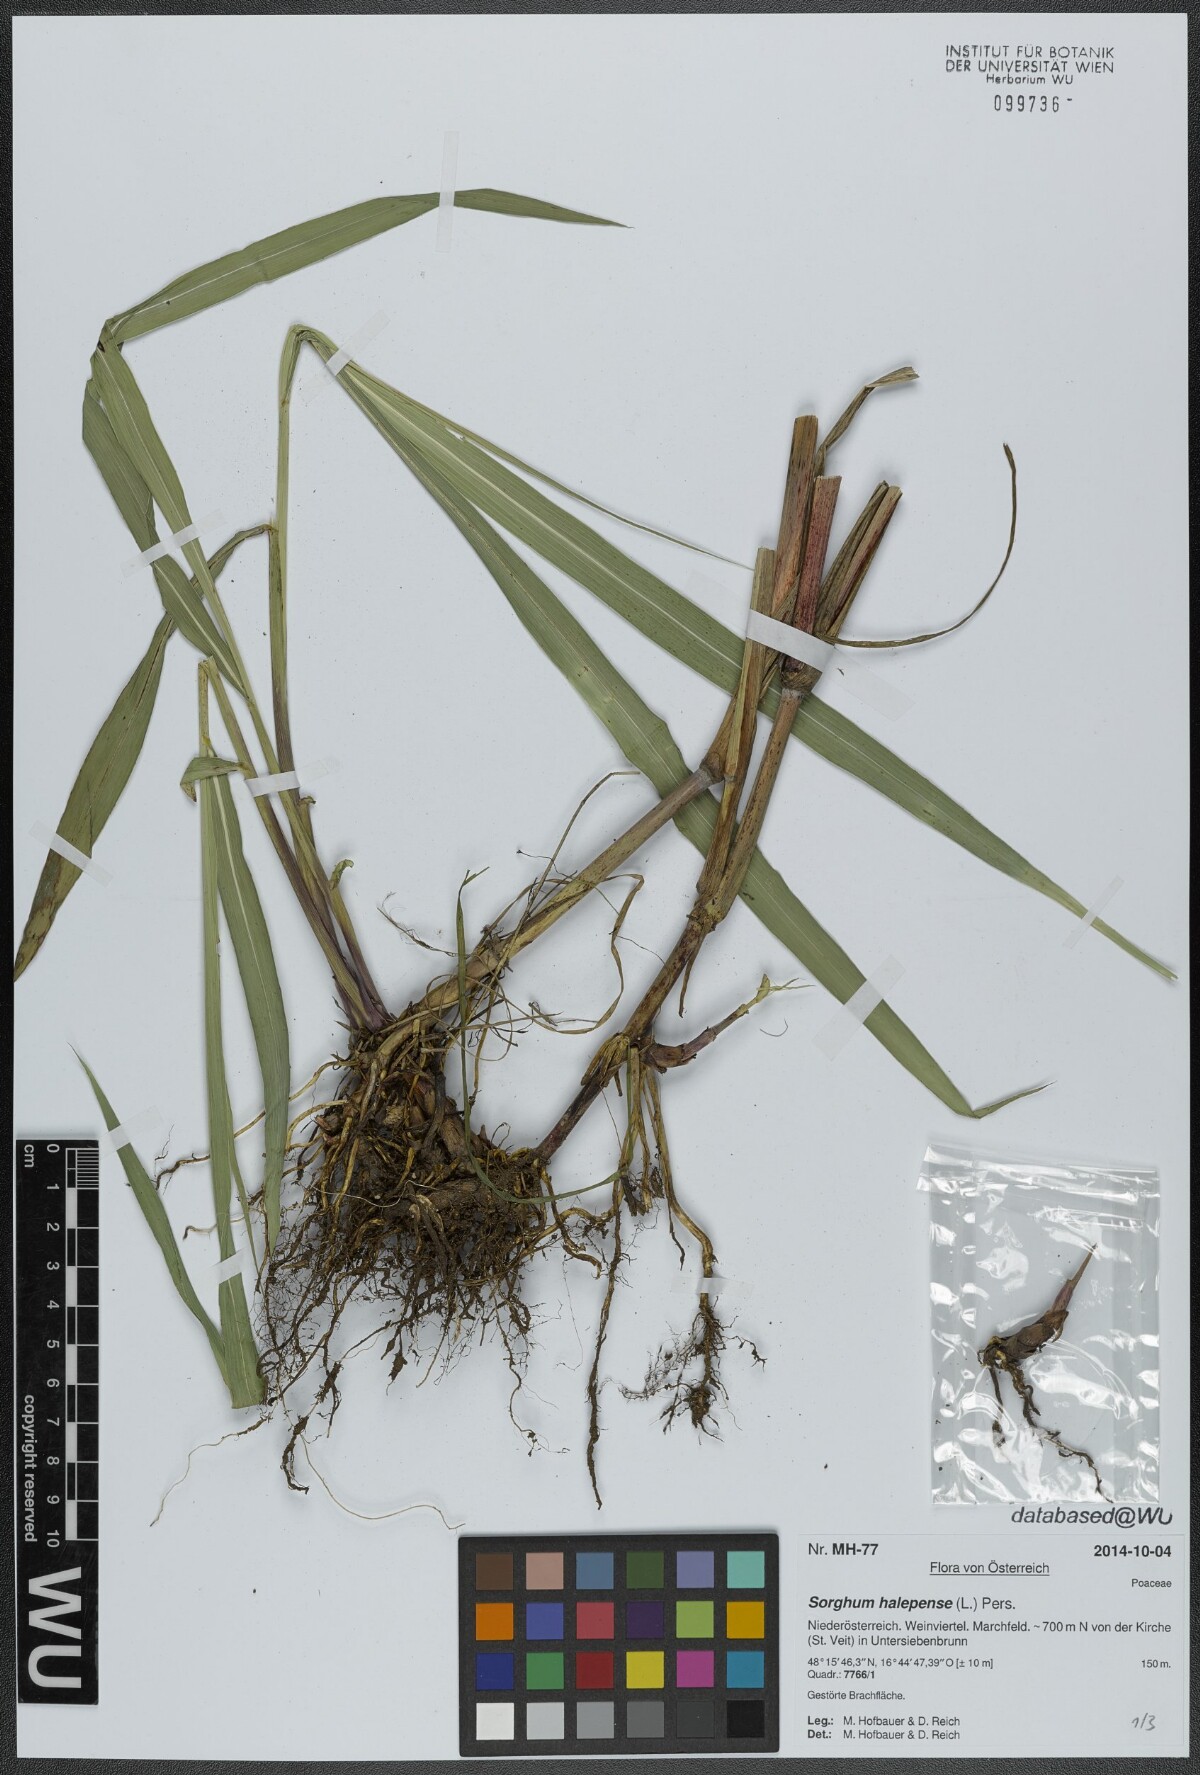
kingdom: Plantae
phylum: Tracheophyta
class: Liliopsida
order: Poales
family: Poaceae
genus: Sorghum
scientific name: Sorghum halepense
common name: Johnson-grass
